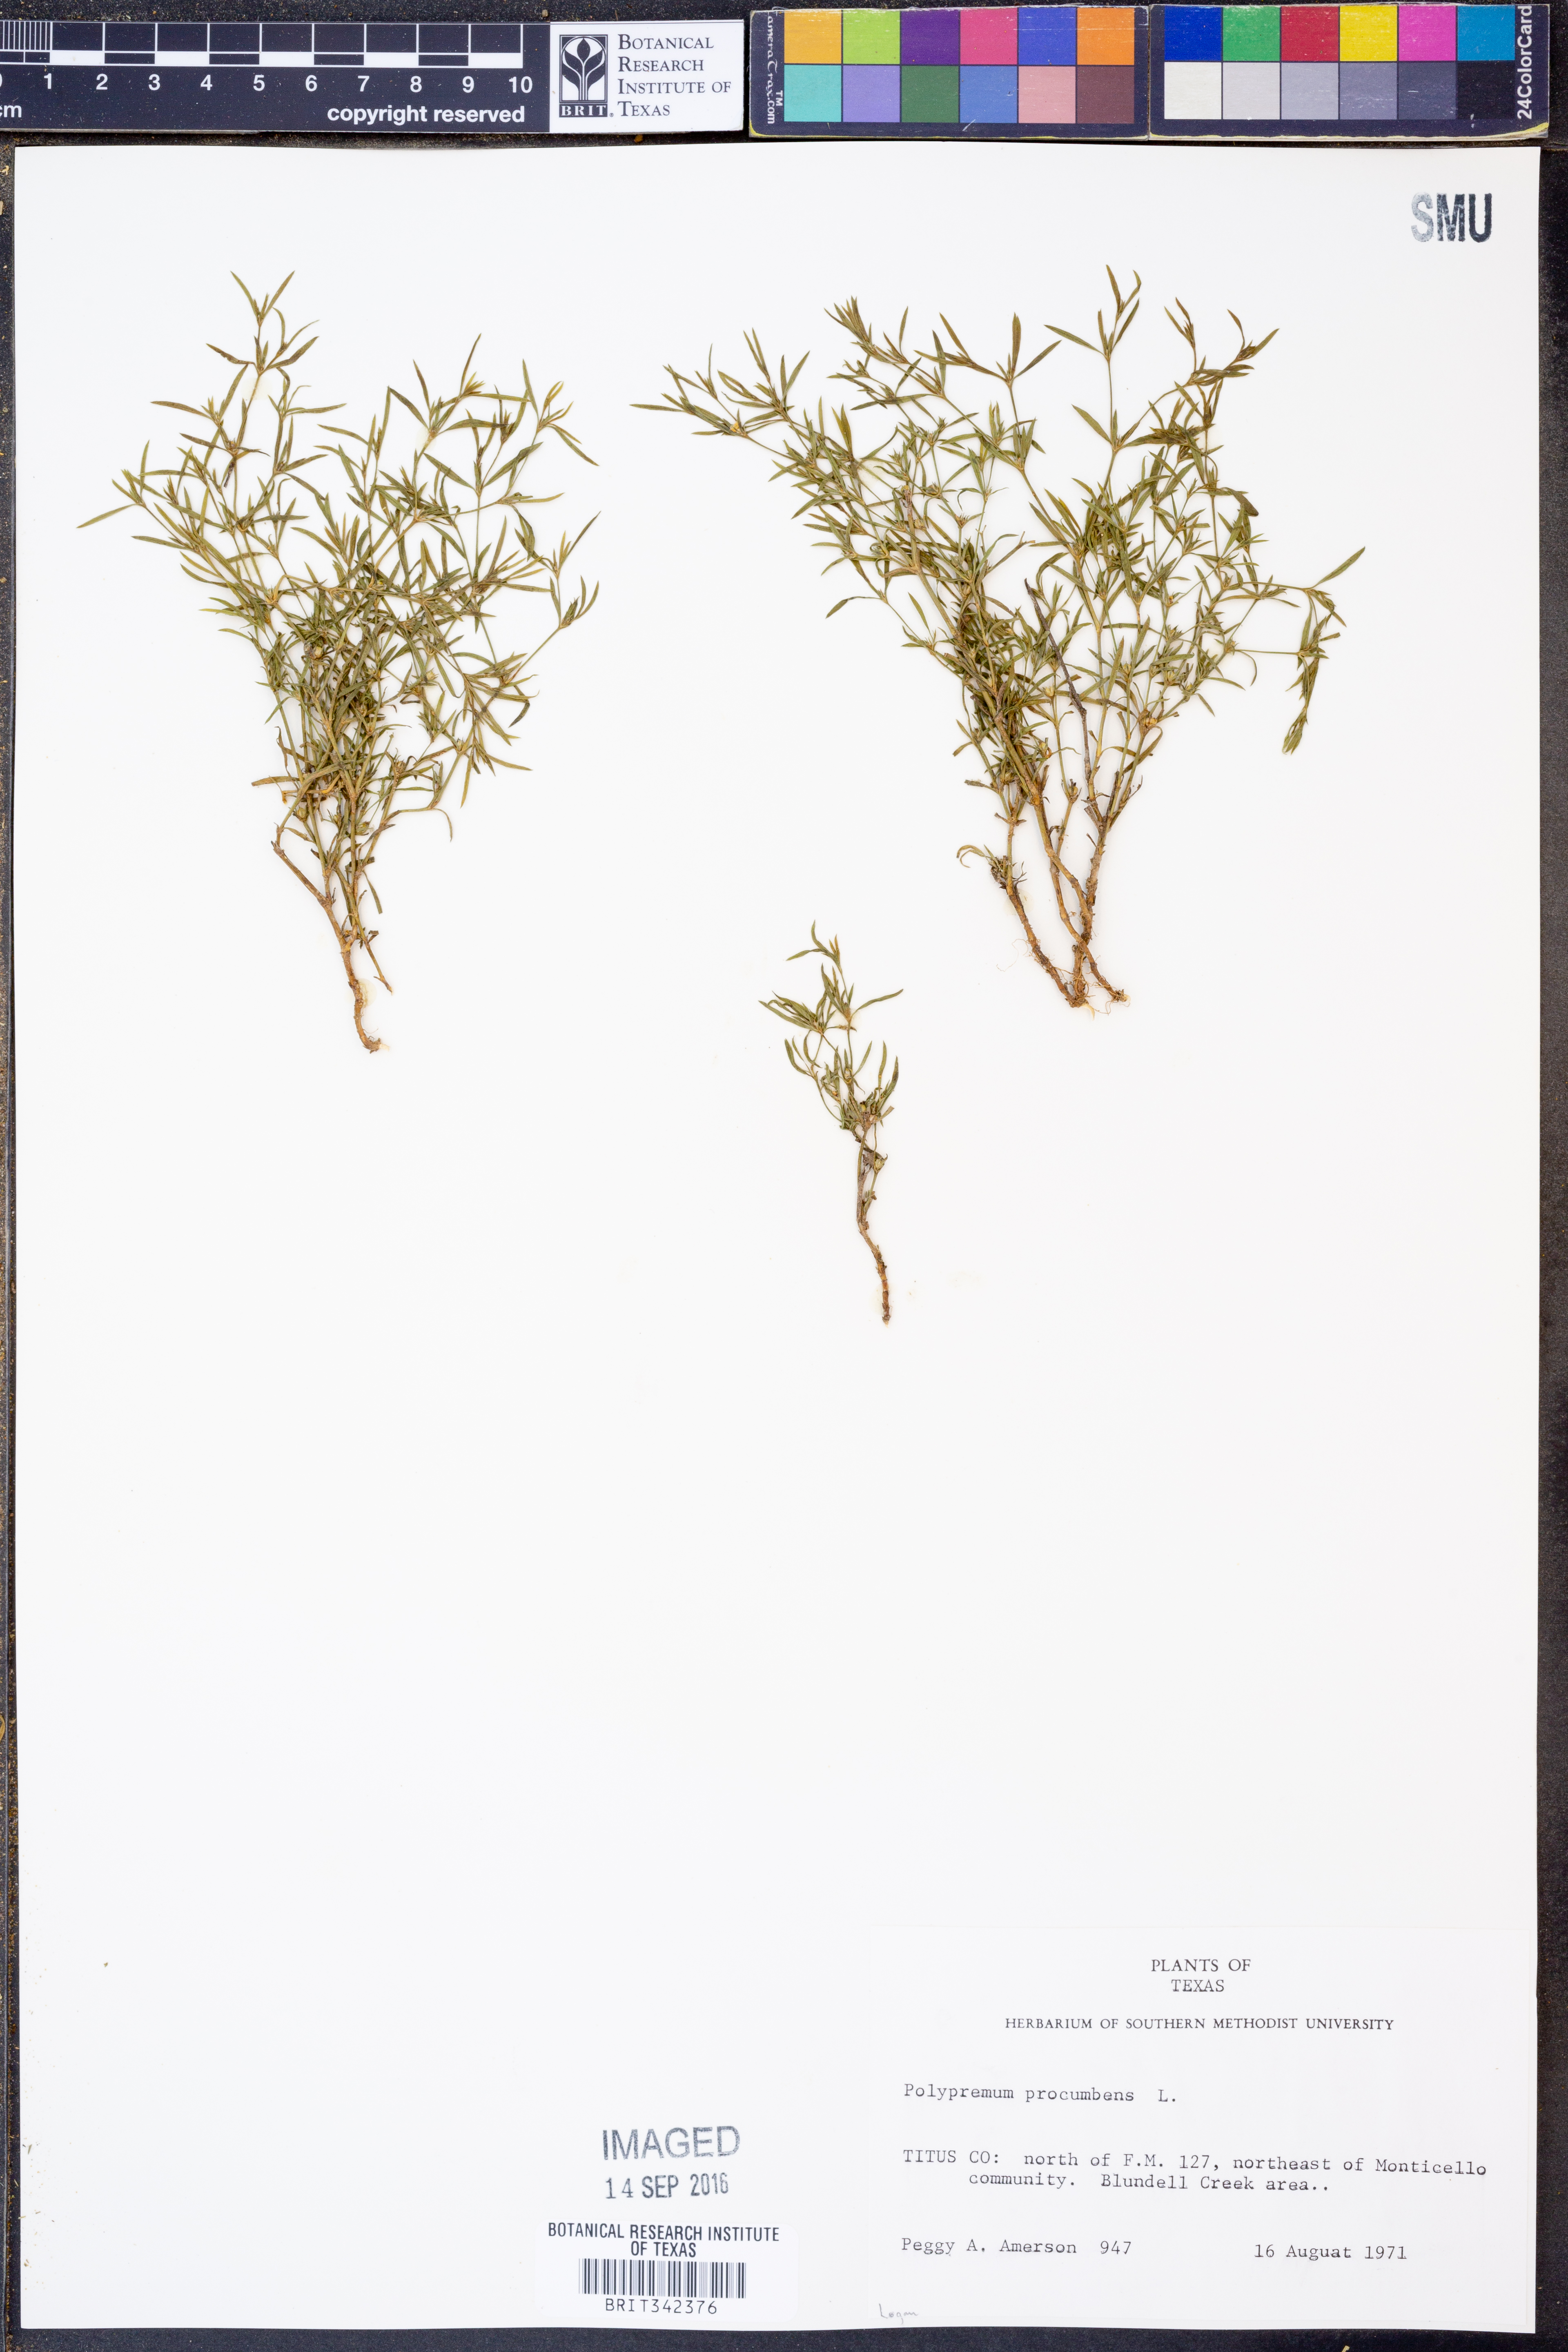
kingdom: Plantae
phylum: Tracheophyta
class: Magnoliopsida
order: Lamiales
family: Tetrachondraceae
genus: Polypremum
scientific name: Polypremum procumbens
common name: Juniper-leaf
